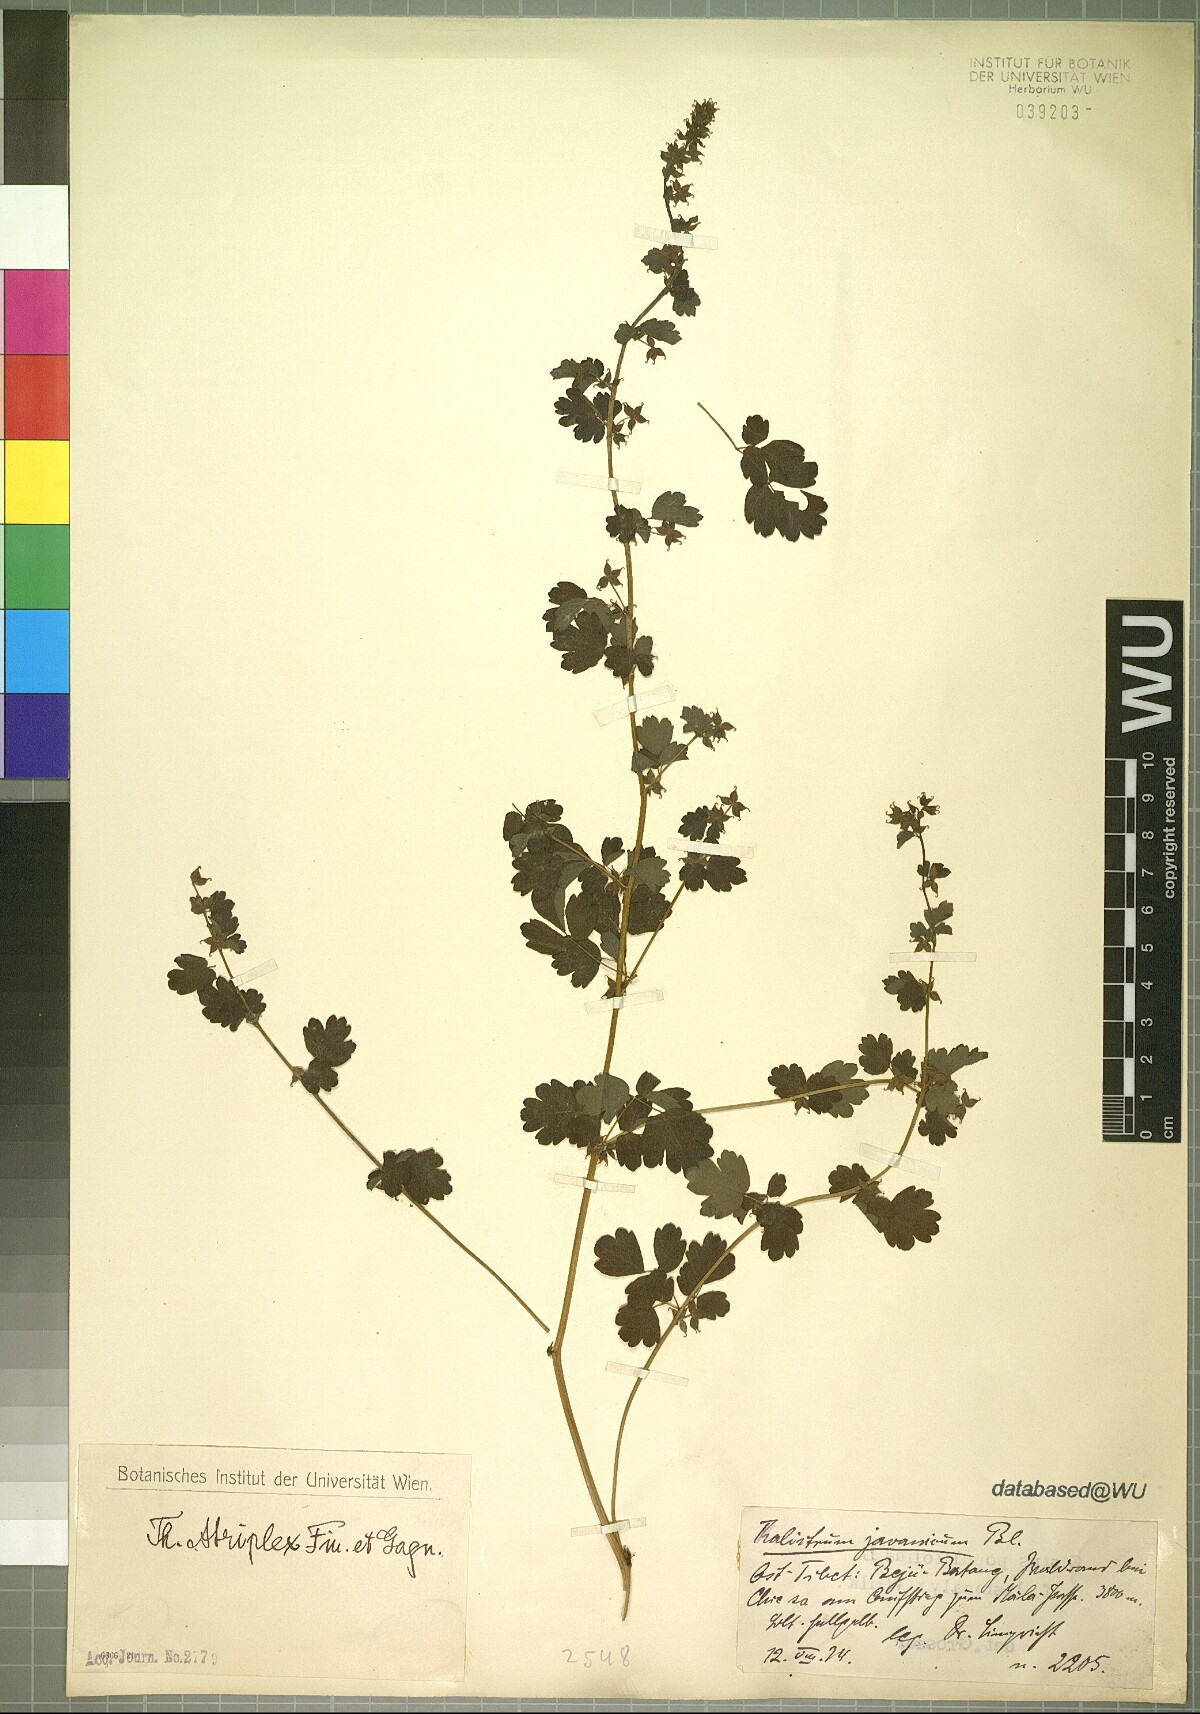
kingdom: Plantae
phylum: Tracheophyta
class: Magnoliopsida
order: Ranunculales
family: Ranunculaceae
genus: Thalictrum
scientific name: Thalictrum atriplex
